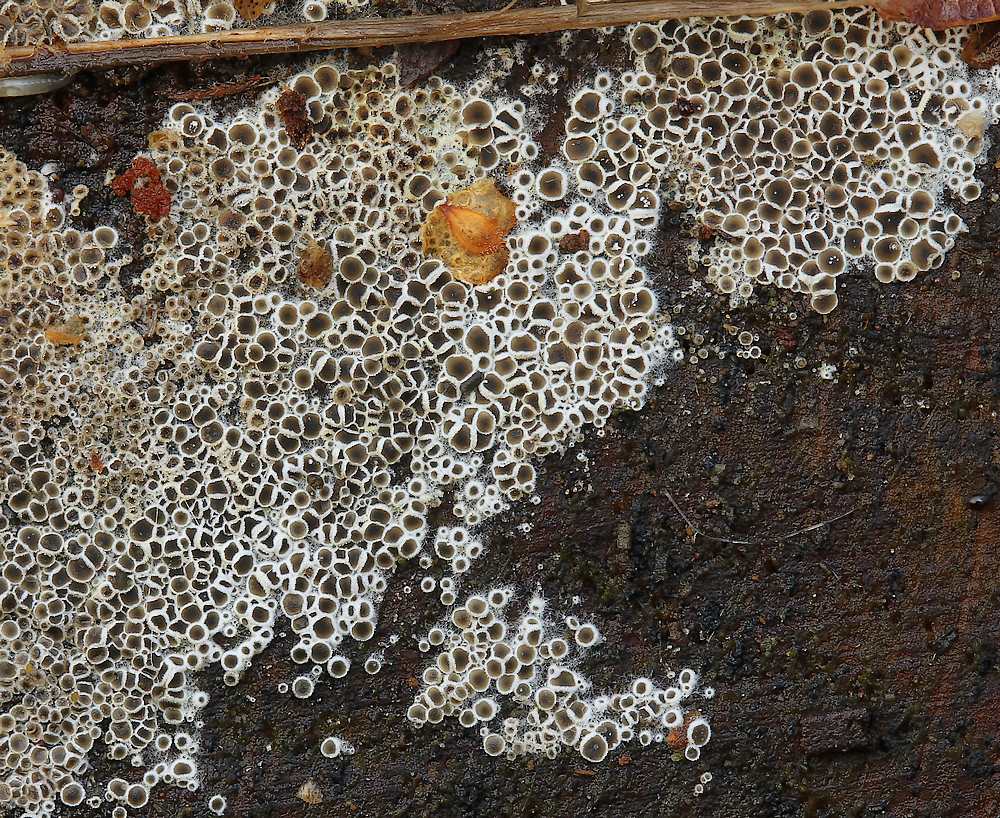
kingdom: Fungi
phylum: Ascomycota
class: Leotiomycetes
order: Helotiales
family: Arachnopezizaceae
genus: Eriopezia
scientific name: Eriopezia caesia
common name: ege-spindskive
